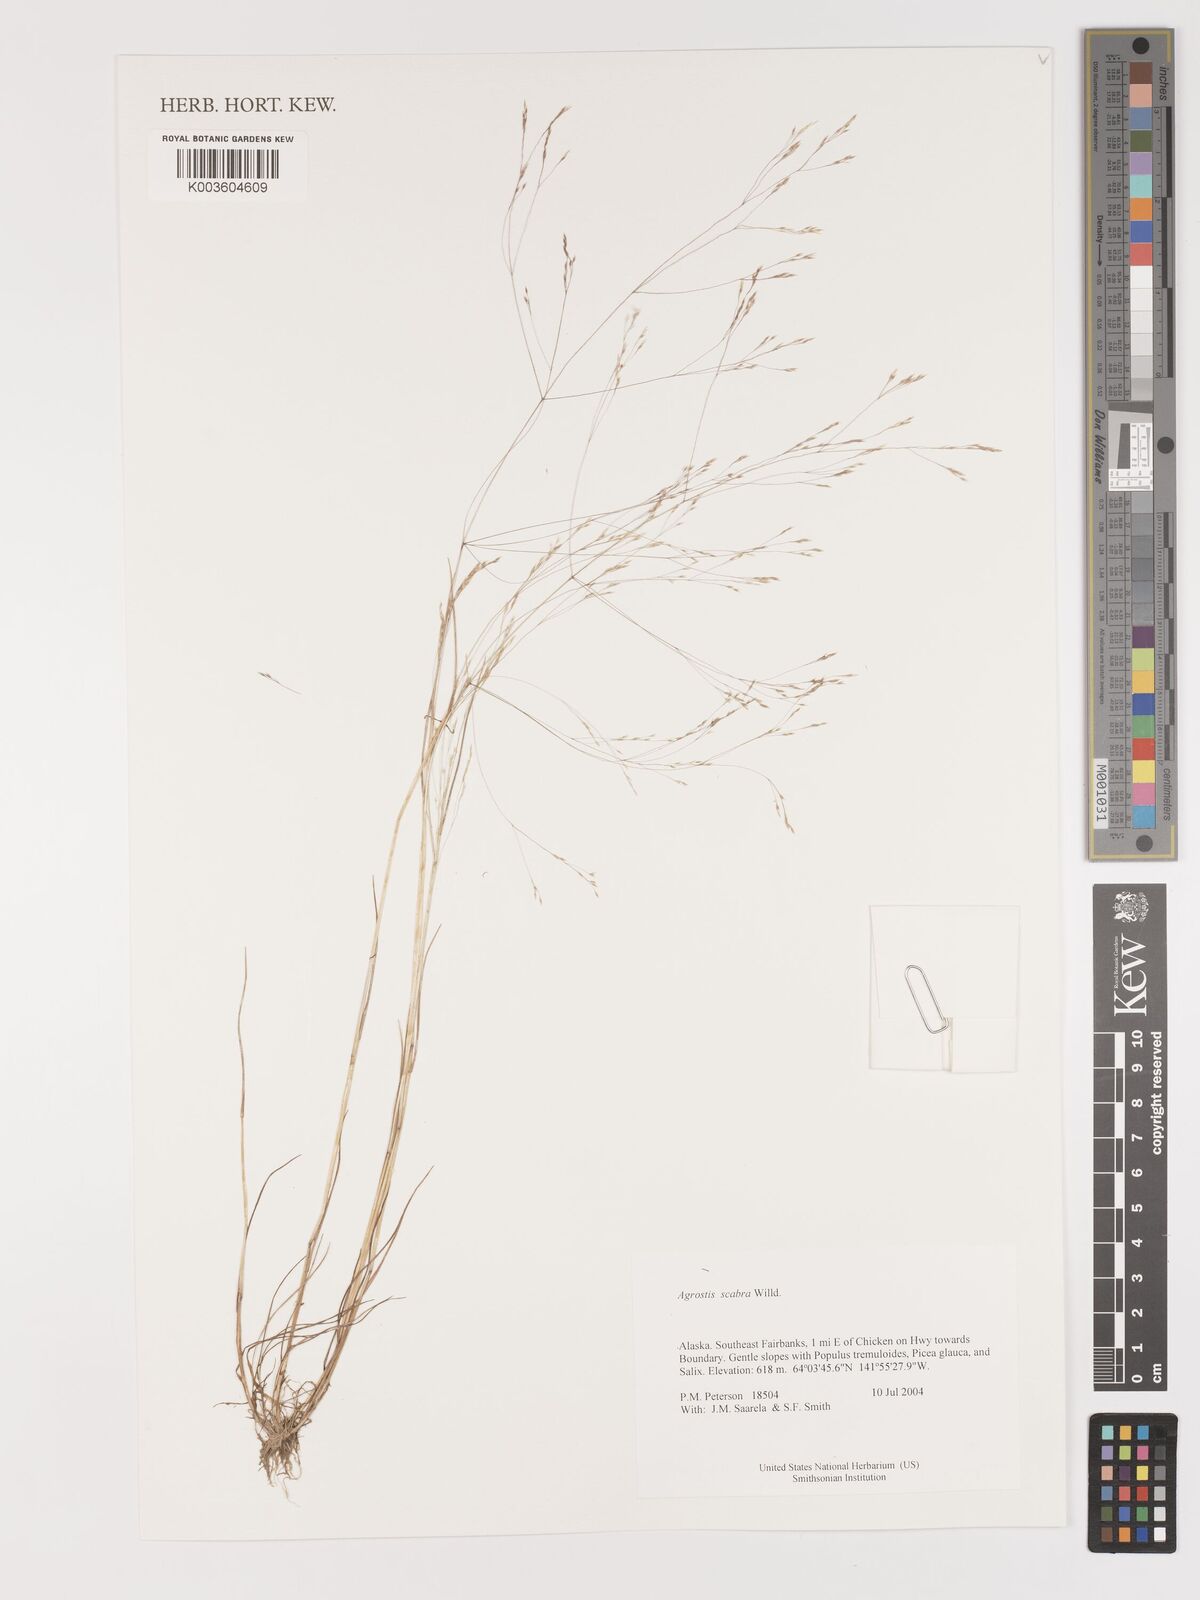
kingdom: Plantae
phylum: Tracheophyta
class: Liliopsida
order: Poales
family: Poaceae
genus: Agrostis
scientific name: Agrostis
